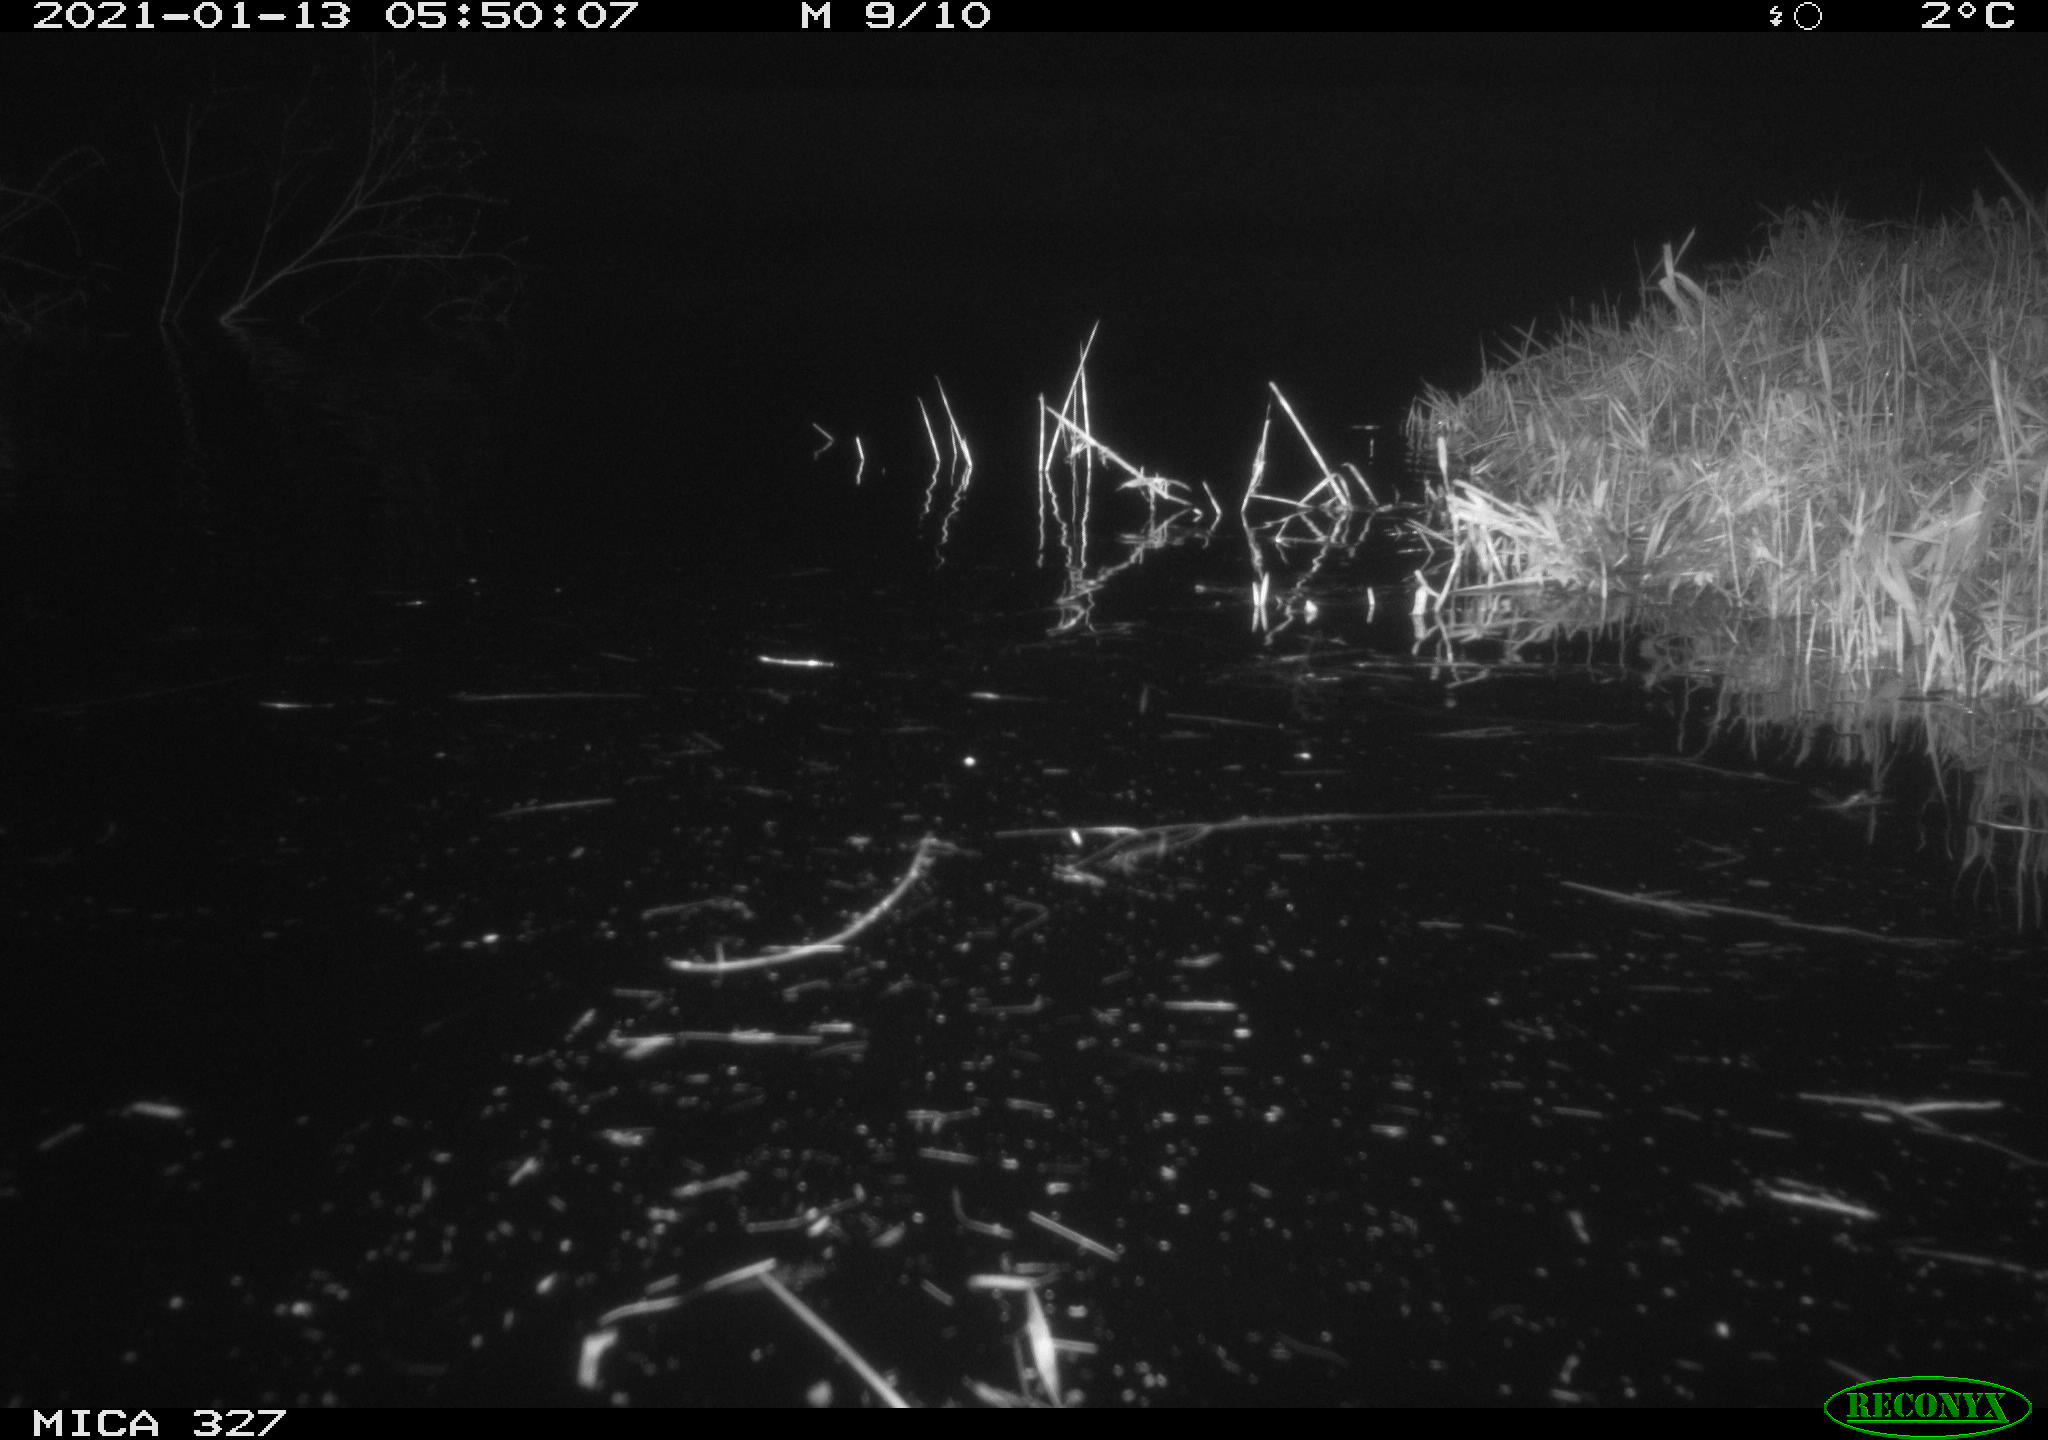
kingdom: Animalia
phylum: Chordata
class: Mammalia
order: Rodentia
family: Myocastoridae
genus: Myocastor
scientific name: Myocastor coypus
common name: Coypu
